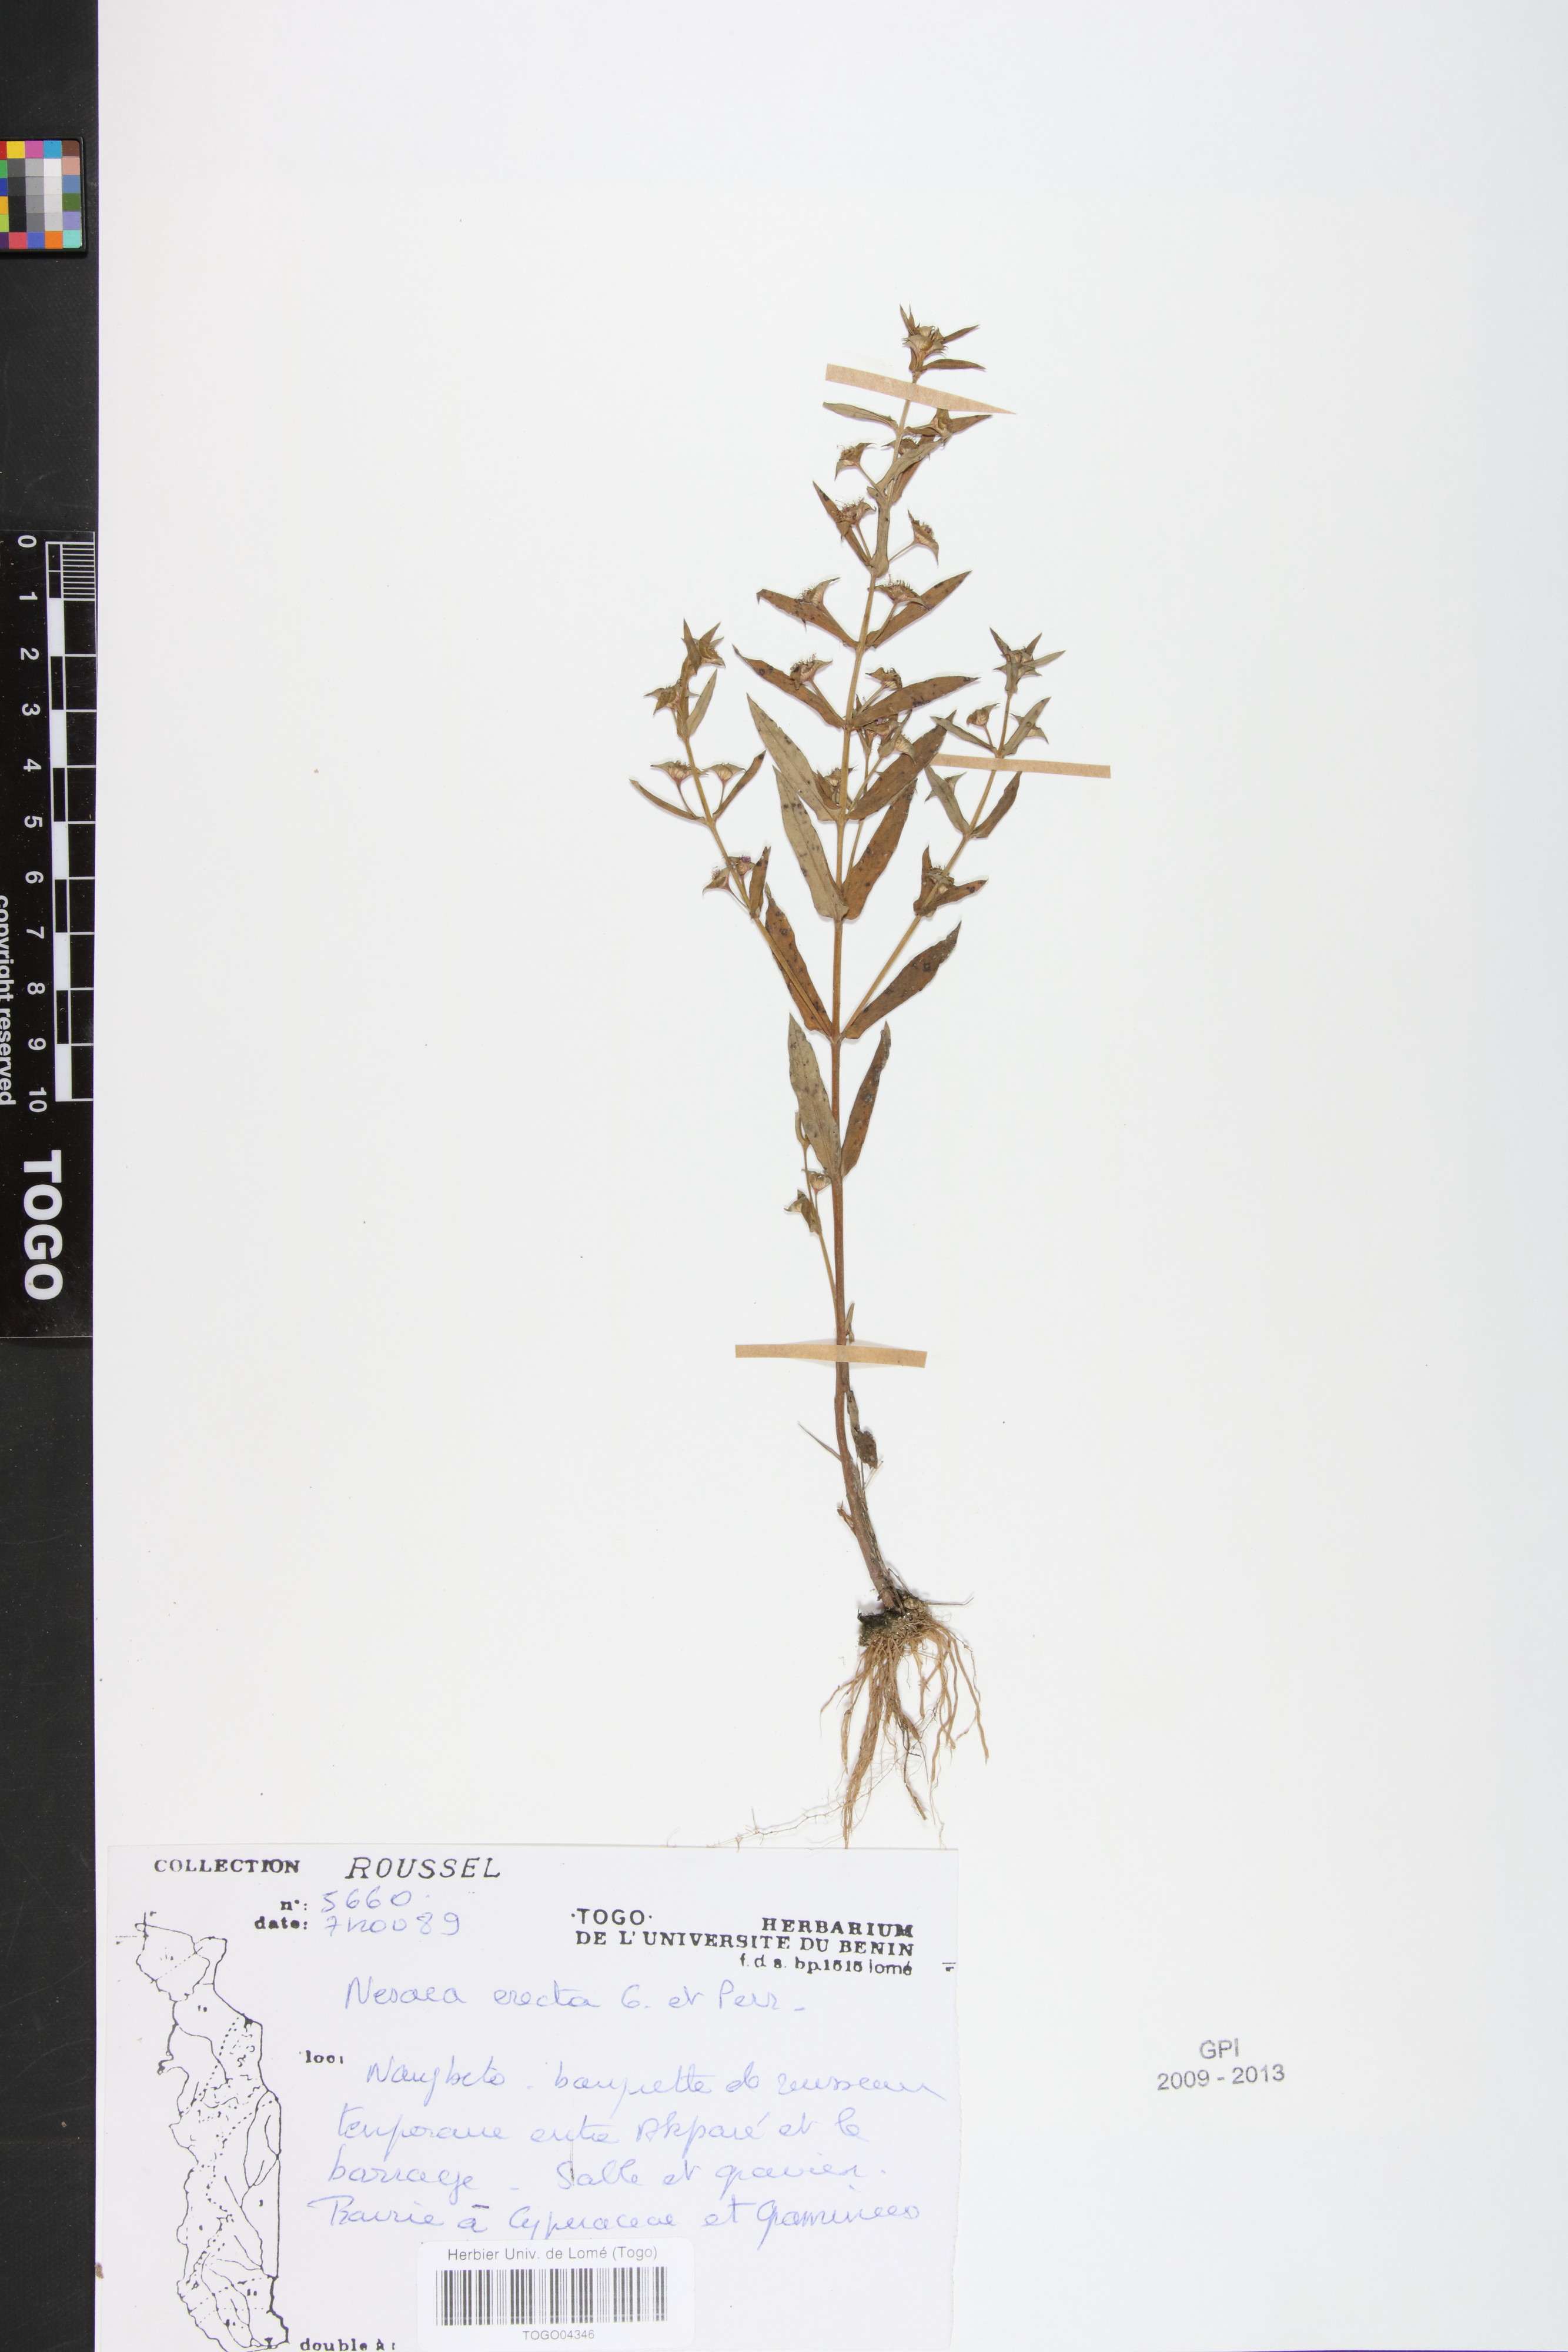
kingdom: Plantae
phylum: Tracheophyta
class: Magnoliopsida
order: Myrtales
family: Lythraceae
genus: Ammannia
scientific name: Ammannia erecta
